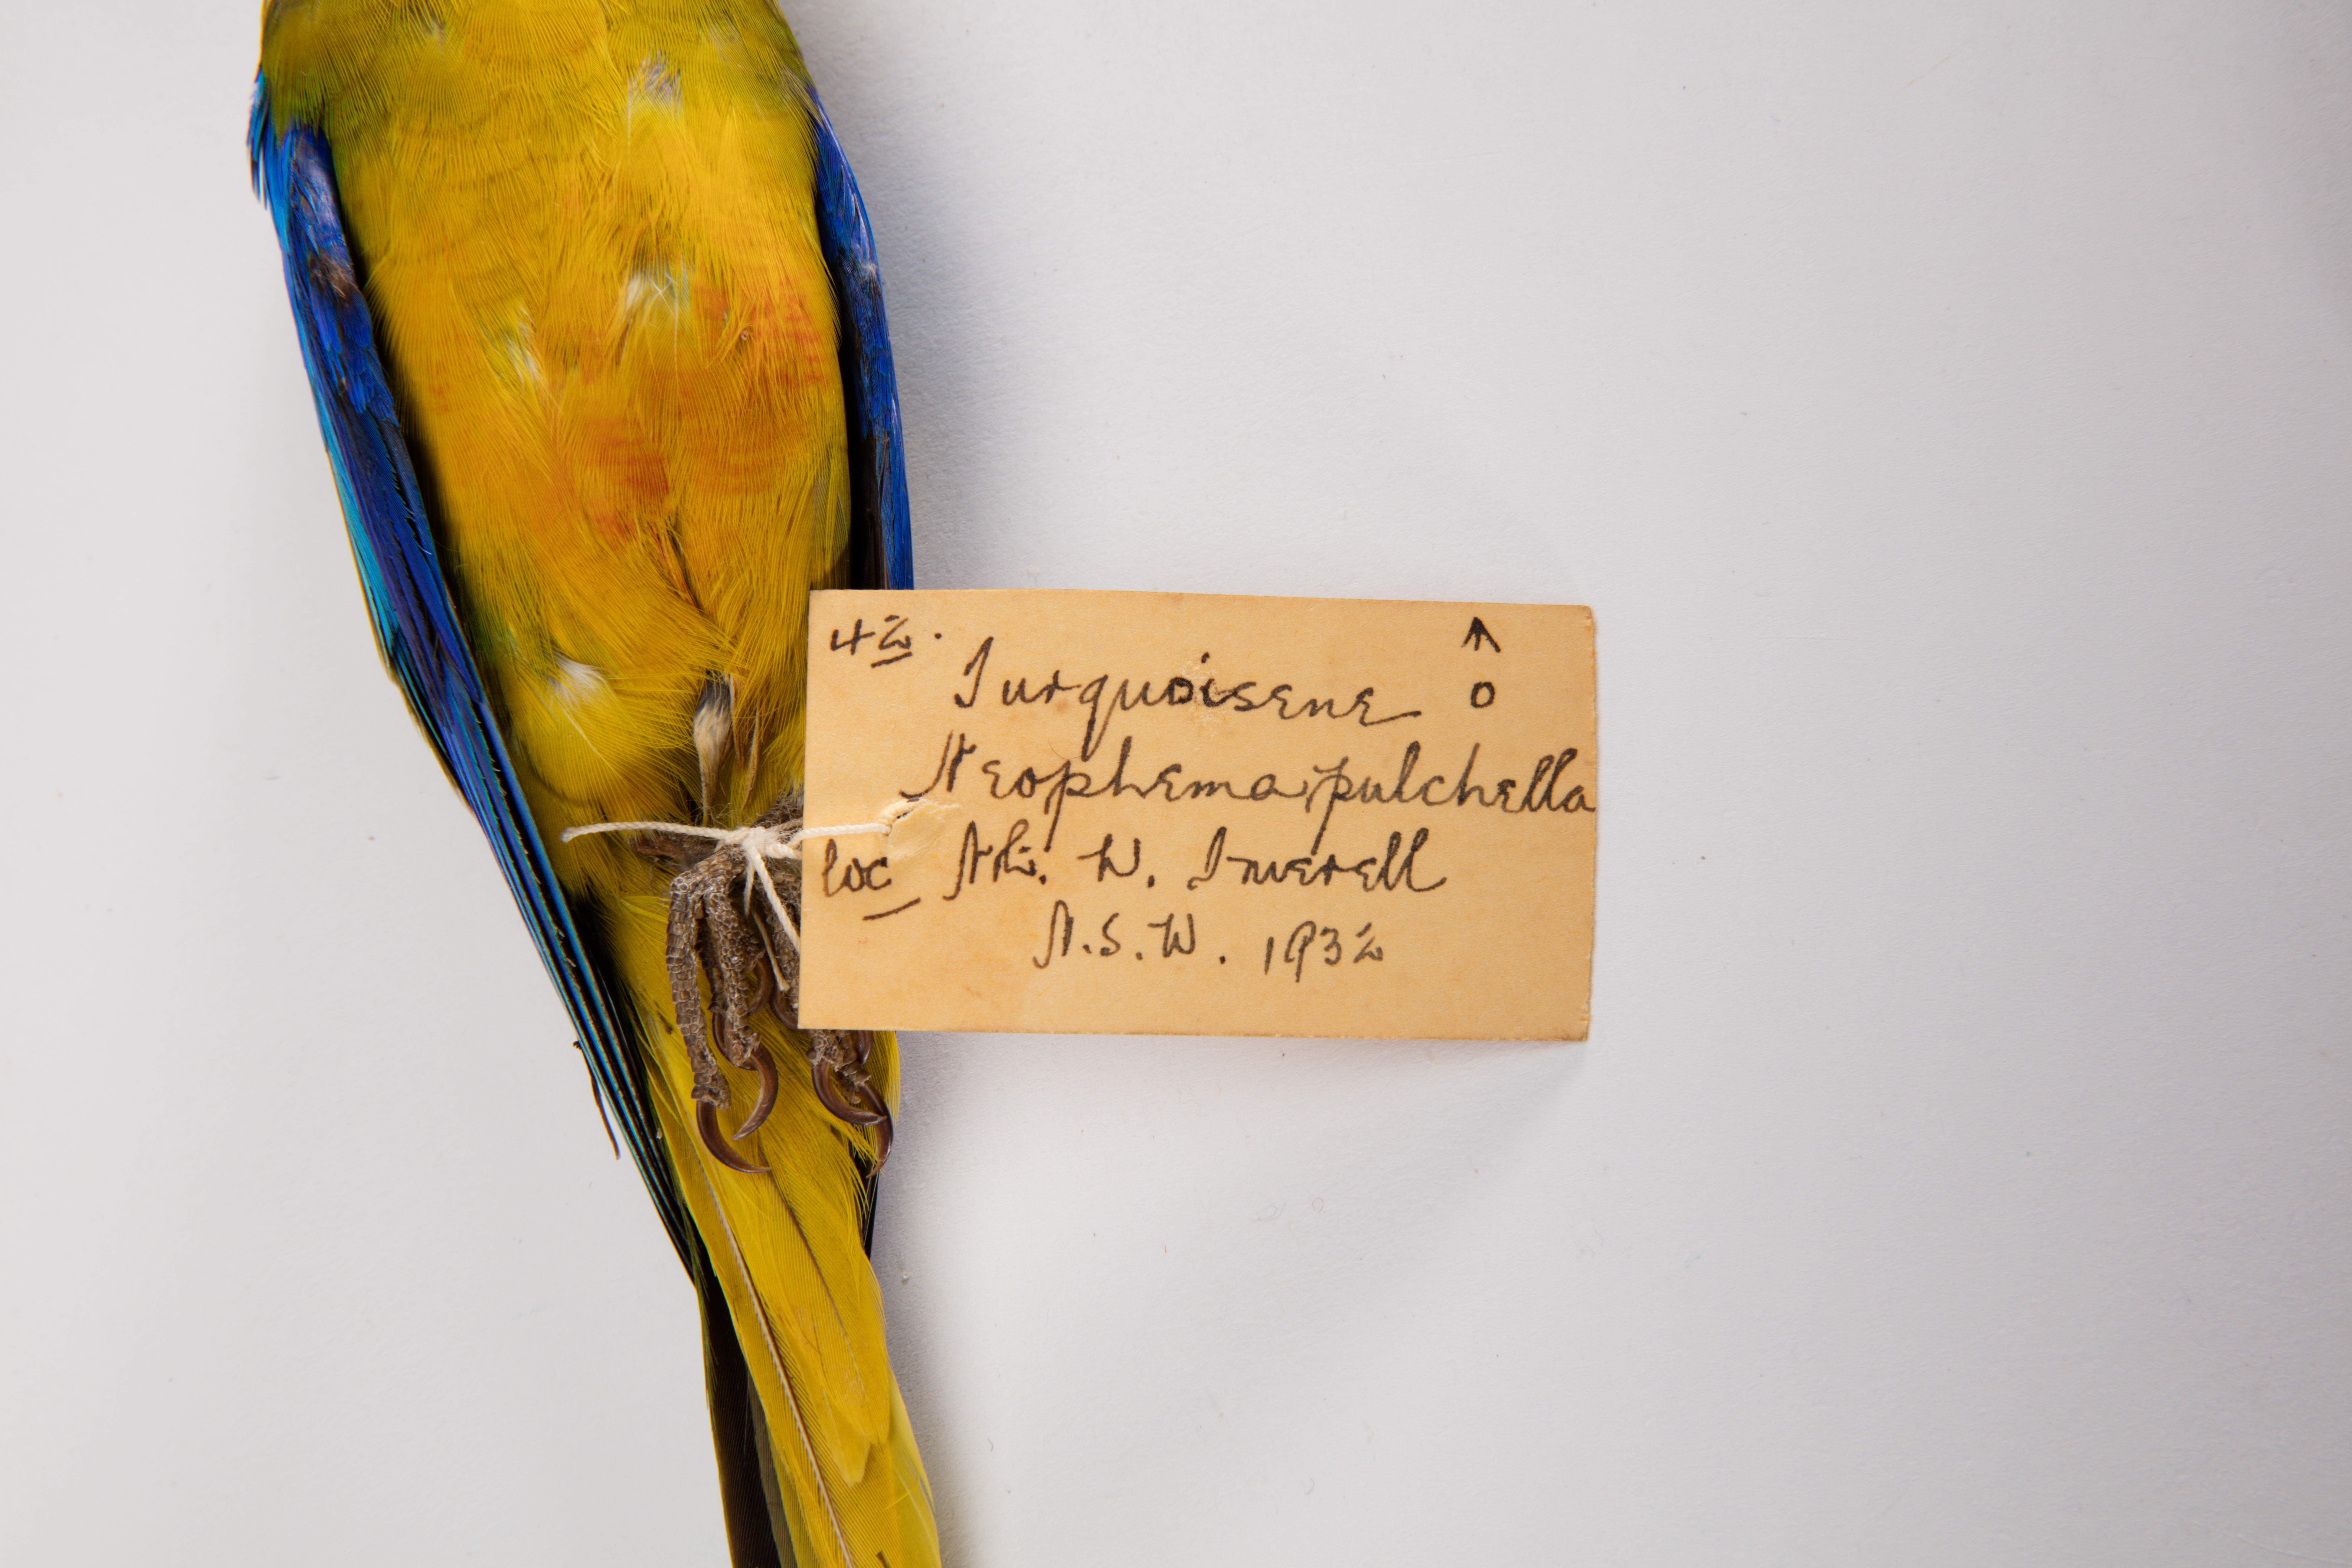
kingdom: Animalia
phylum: Chordata
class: Aves
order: Psittaciformes
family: Psittacidae
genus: Neophema
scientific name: Neophema pulchella
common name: Turquoise parrot
